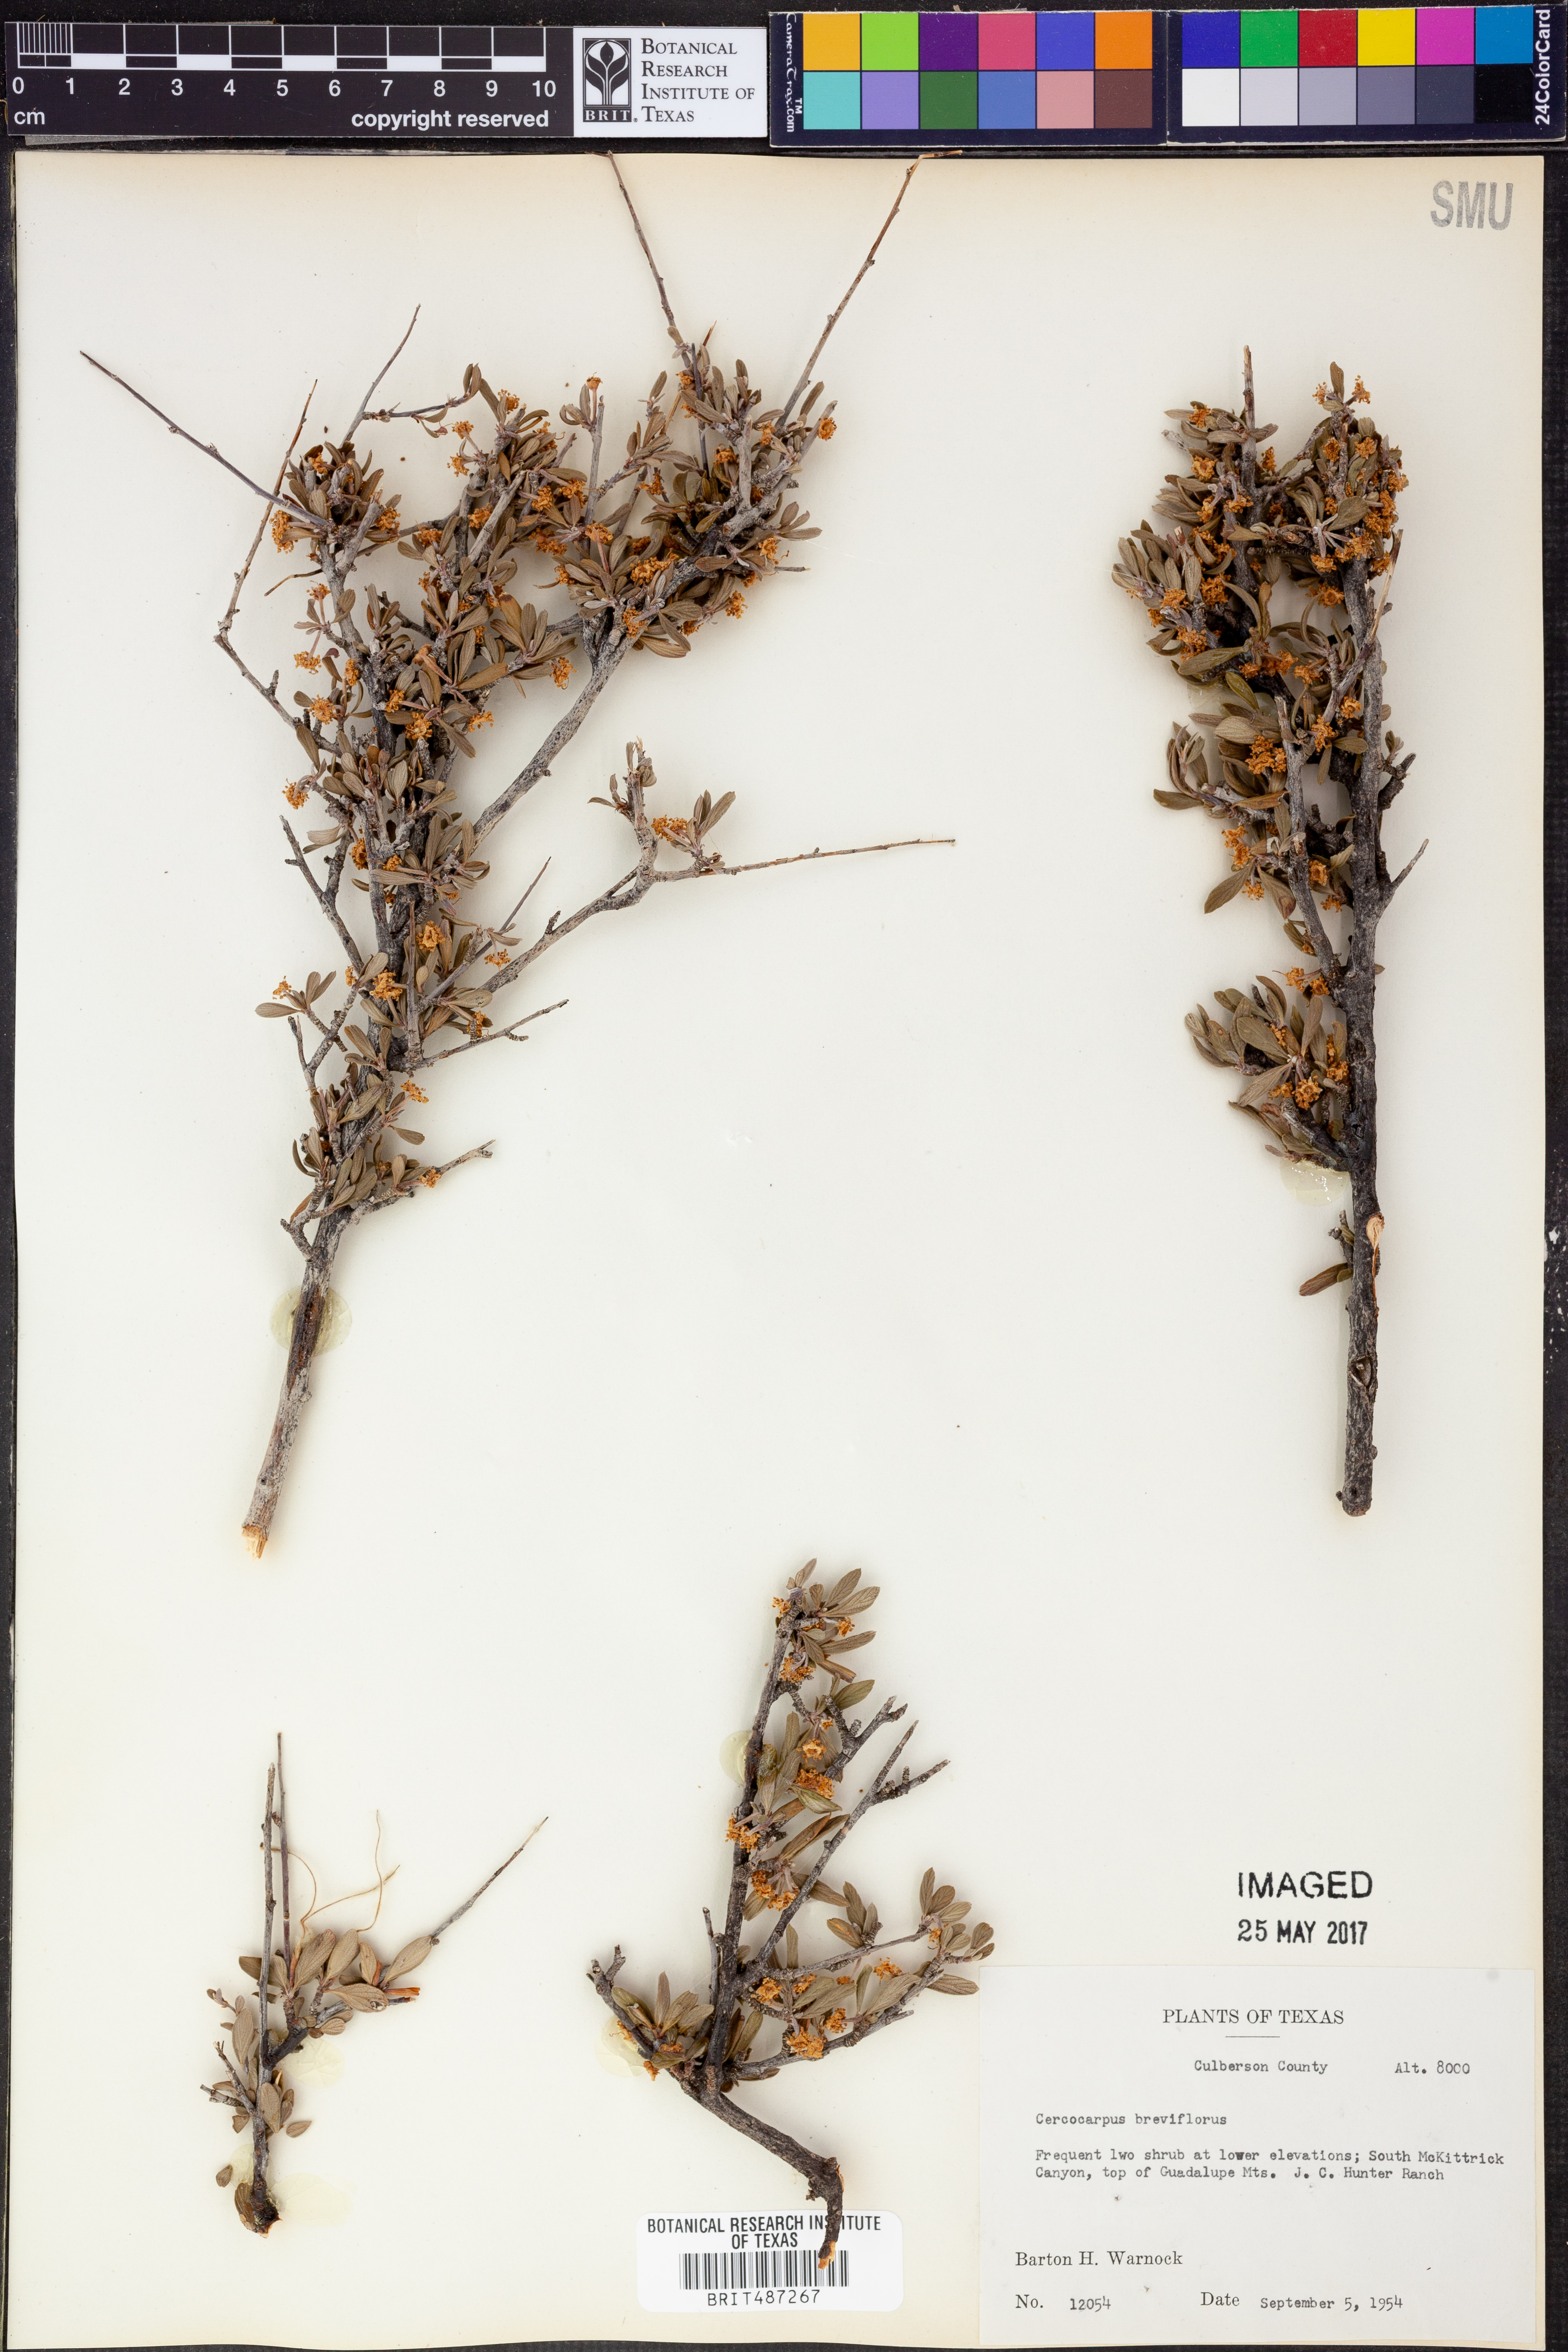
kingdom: Plantae
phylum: Tracheophyta
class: Magnoliopsida
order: Rosales
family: Rosaceae
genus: Cercocarpus
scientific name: Cercocarpus breviflorus
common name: Wright's mountain-mahogany
